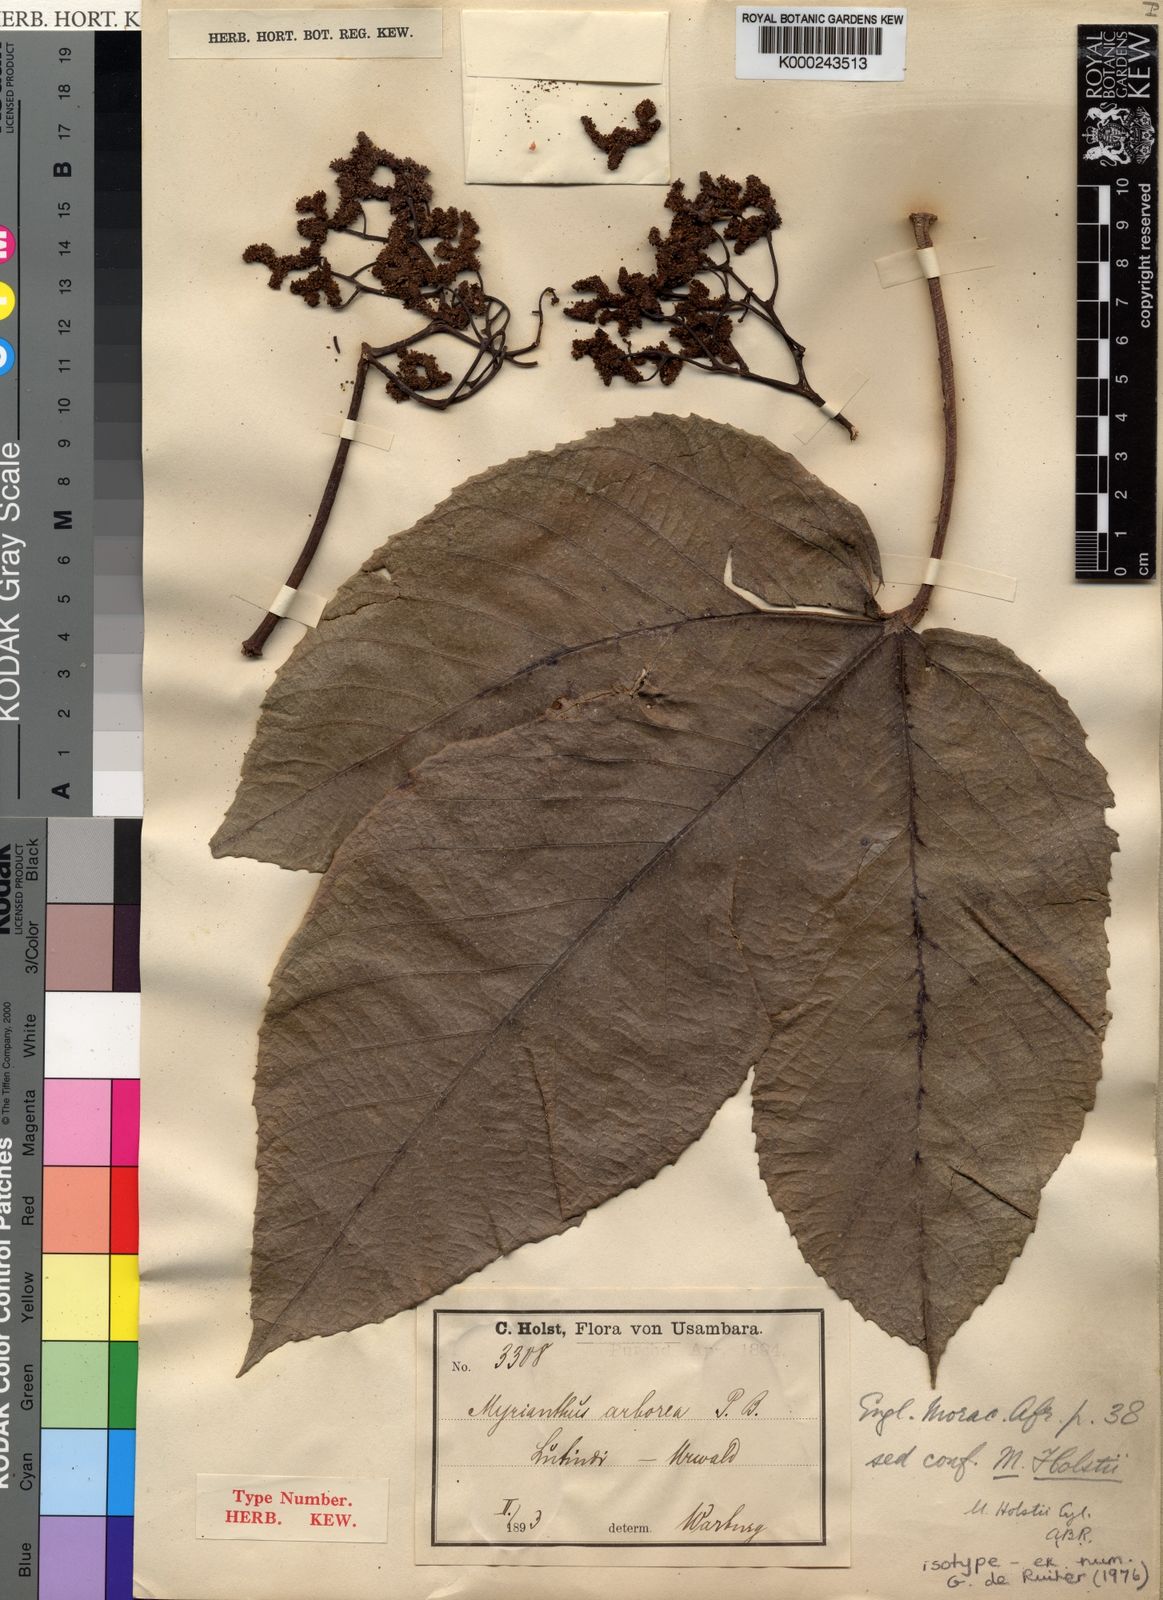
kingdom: Plantae
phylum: Tracheophyta
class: Magnoliopsida
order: Rosales
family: Urticaceae
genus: Myrianthus
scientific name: Myrianthus holstii
